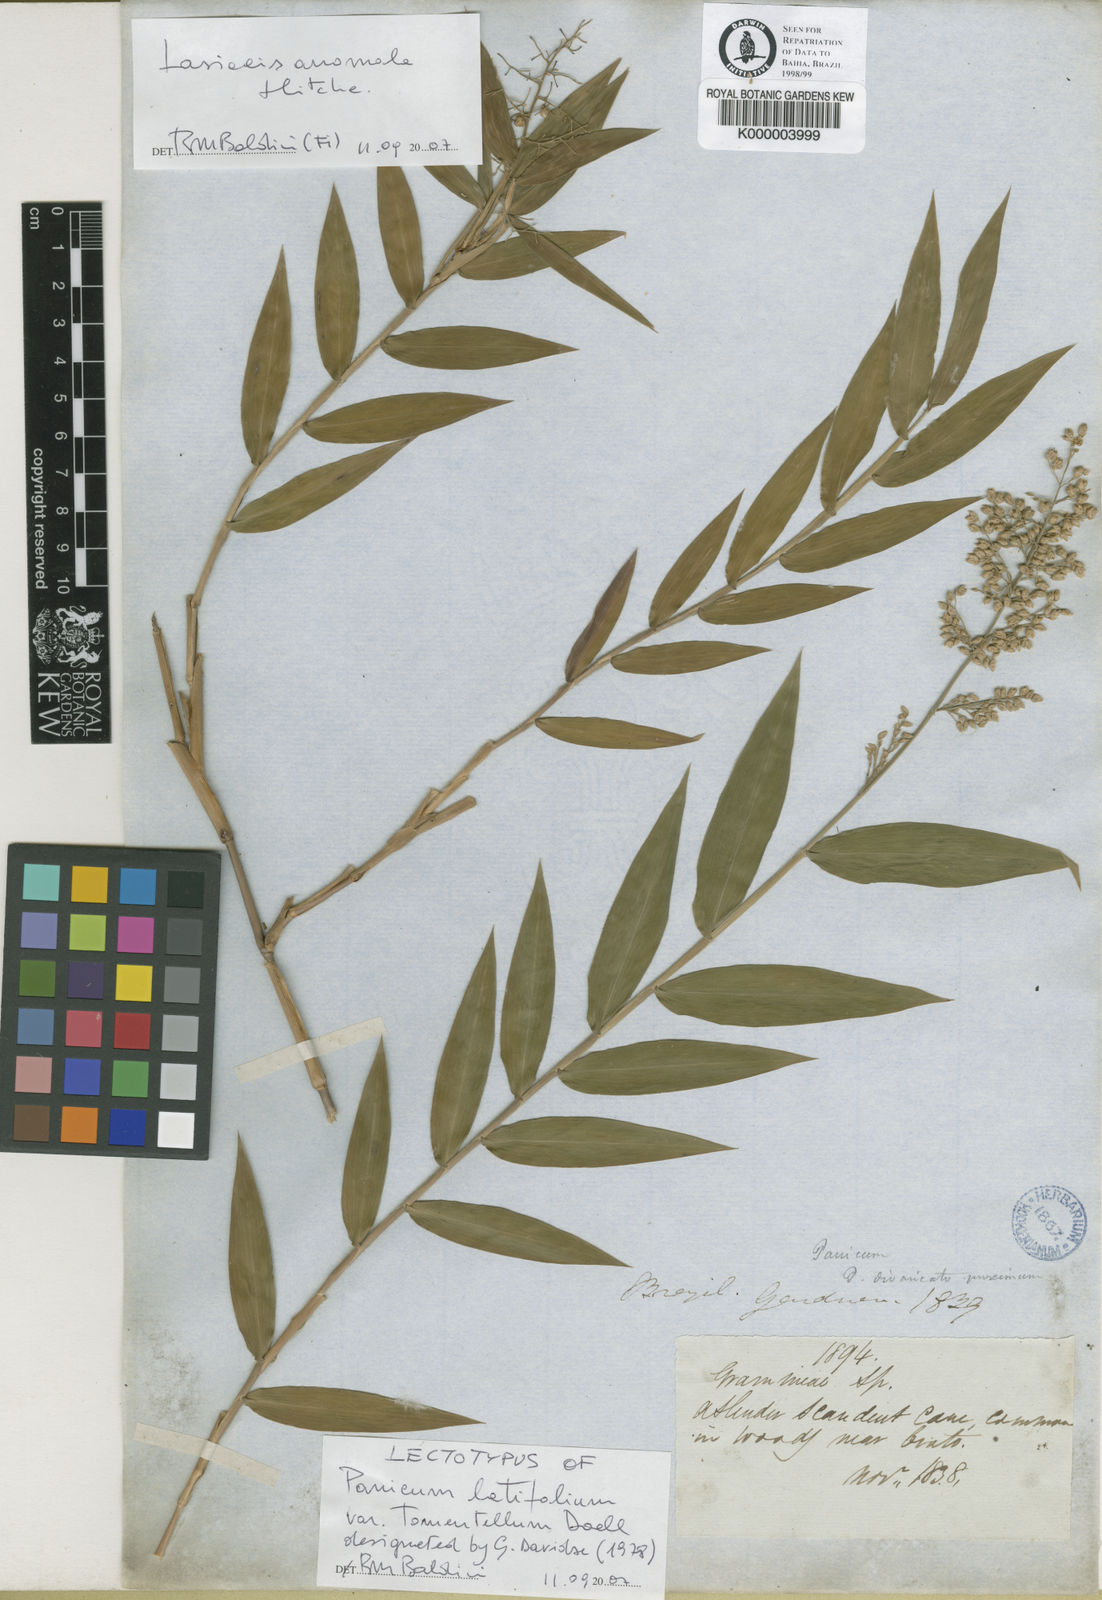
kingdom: Plantae
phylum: Tracheophyta
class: Liliopsida
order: Poales
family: Poaceae
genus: Lasiacis
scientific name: Lasiacis divaricata
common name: Smallcane
